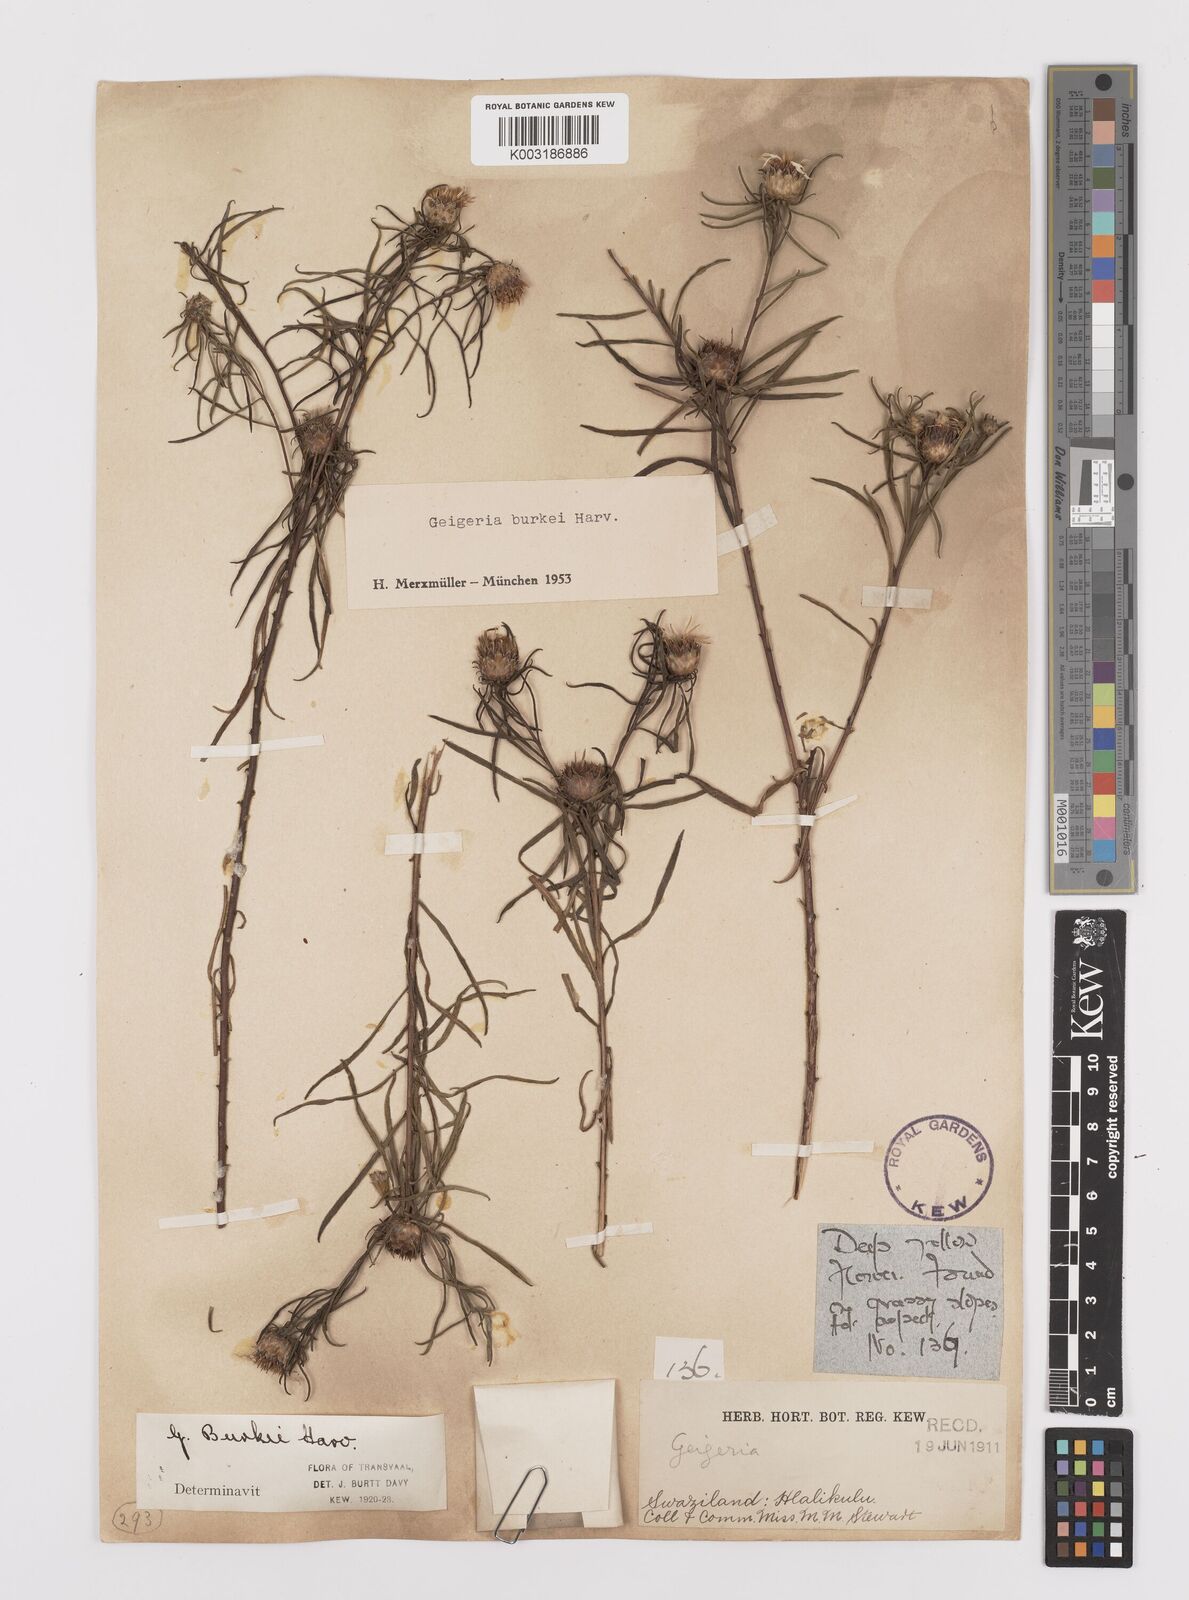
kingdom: Plantae
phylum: Tracheophyta
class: Magnoliopsida
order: Asterales
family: Asteraceae
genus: Geigeria
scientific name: Geigeria burkei
